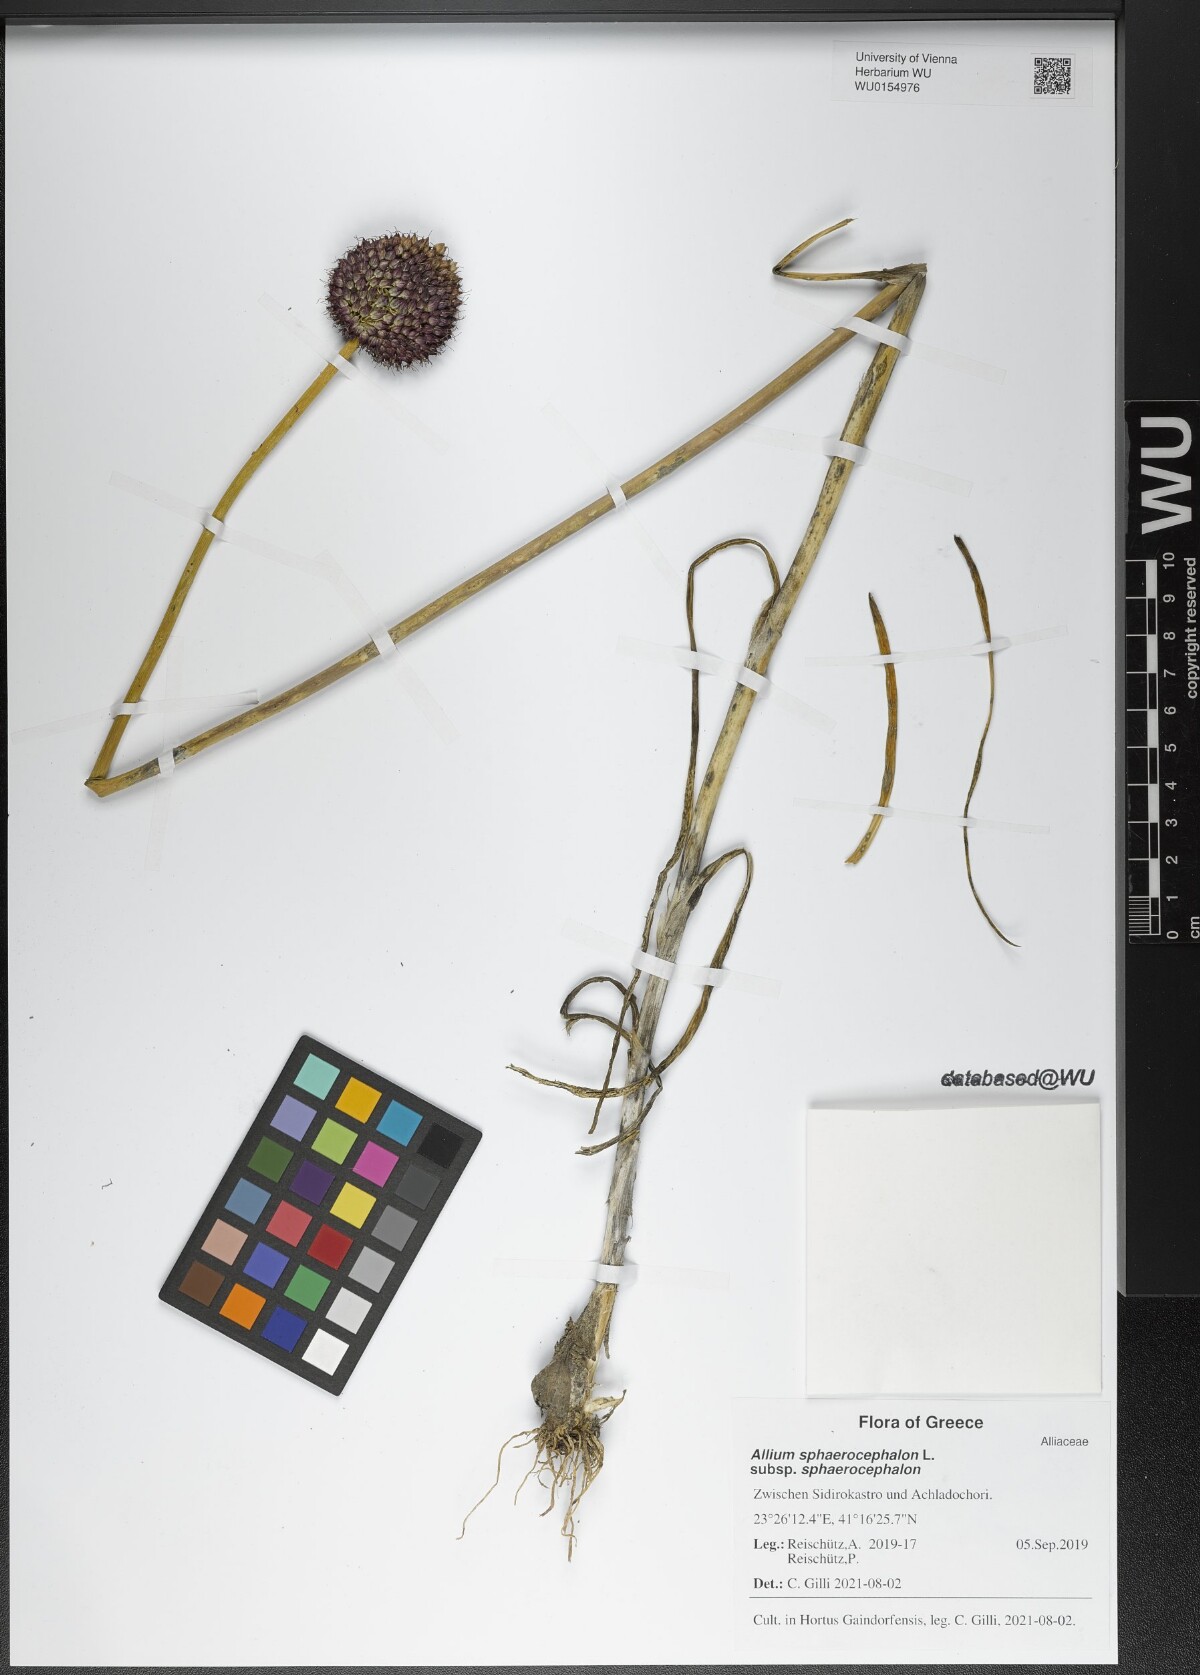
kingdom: Plantae
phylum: Tracheophyta
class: Liliopsida
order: Asparagales
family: Amaryllidaceae
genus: Allium
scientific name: Allium sphaerocephalon
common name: Round-headed leek
